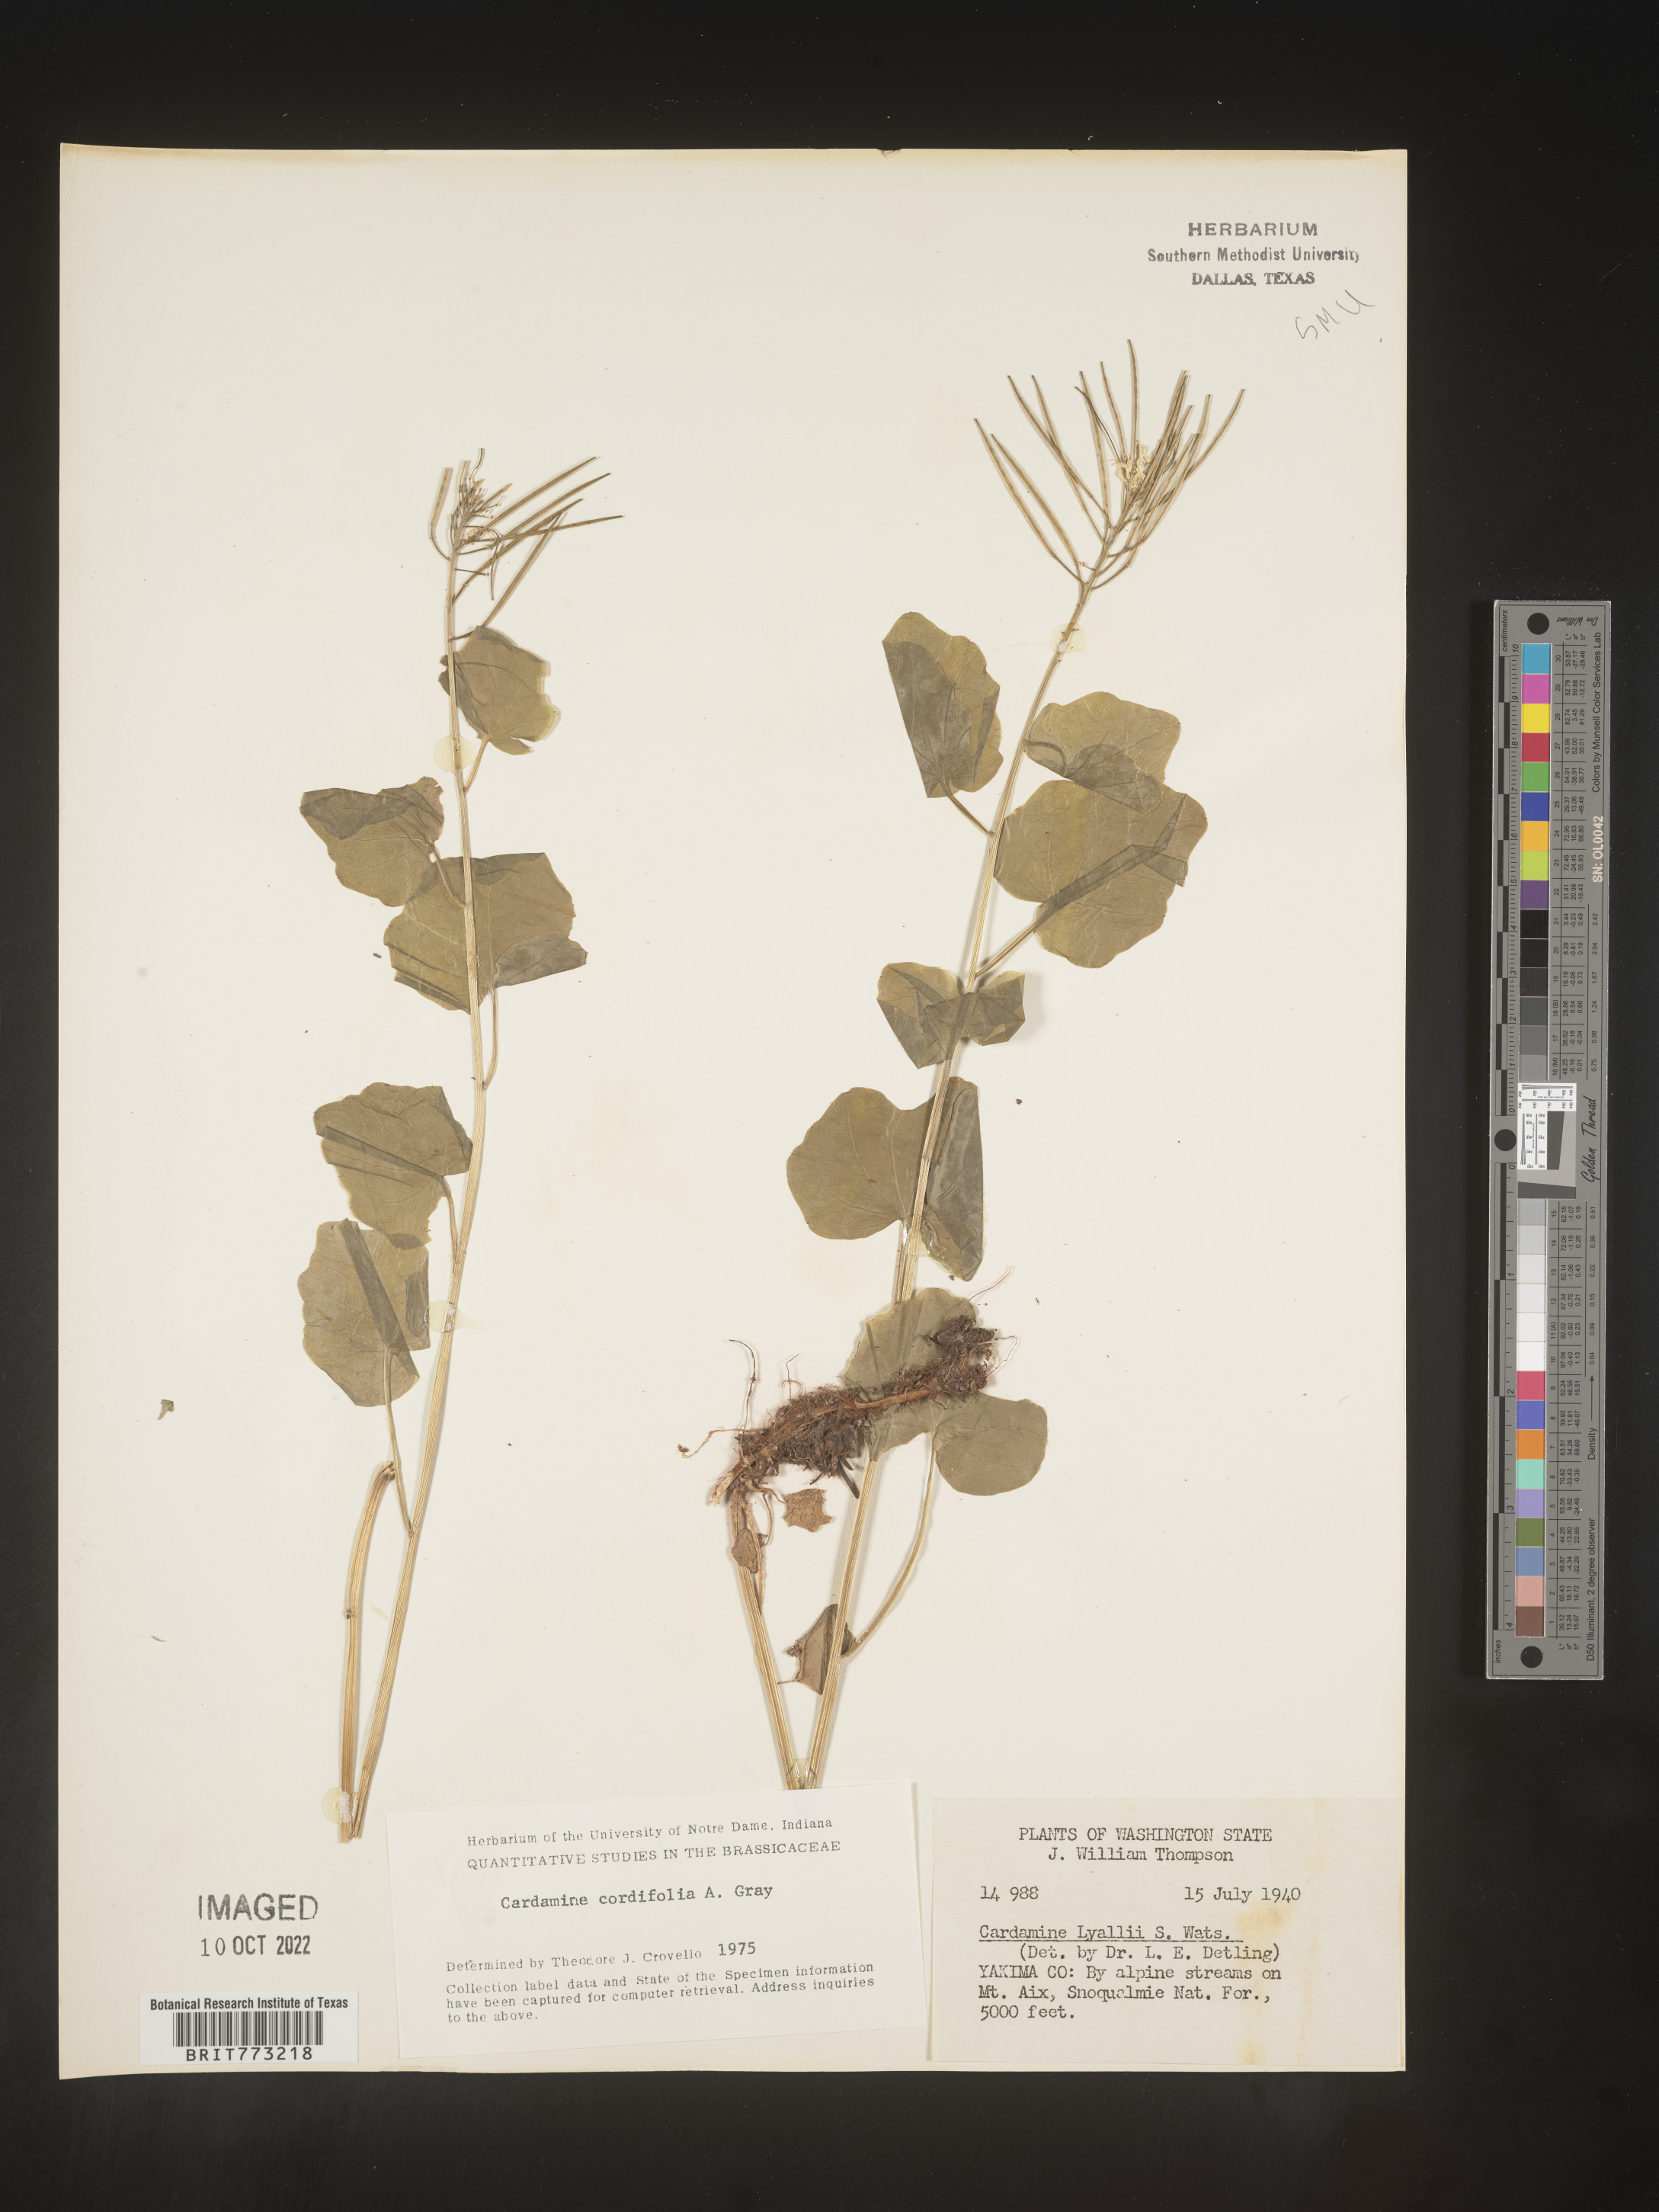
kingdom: Plantae
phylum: Tracheophyta
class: Magnoliopsida
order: Brassicales
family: Brassicaceae
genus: Cardamine
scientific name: Cardamine
